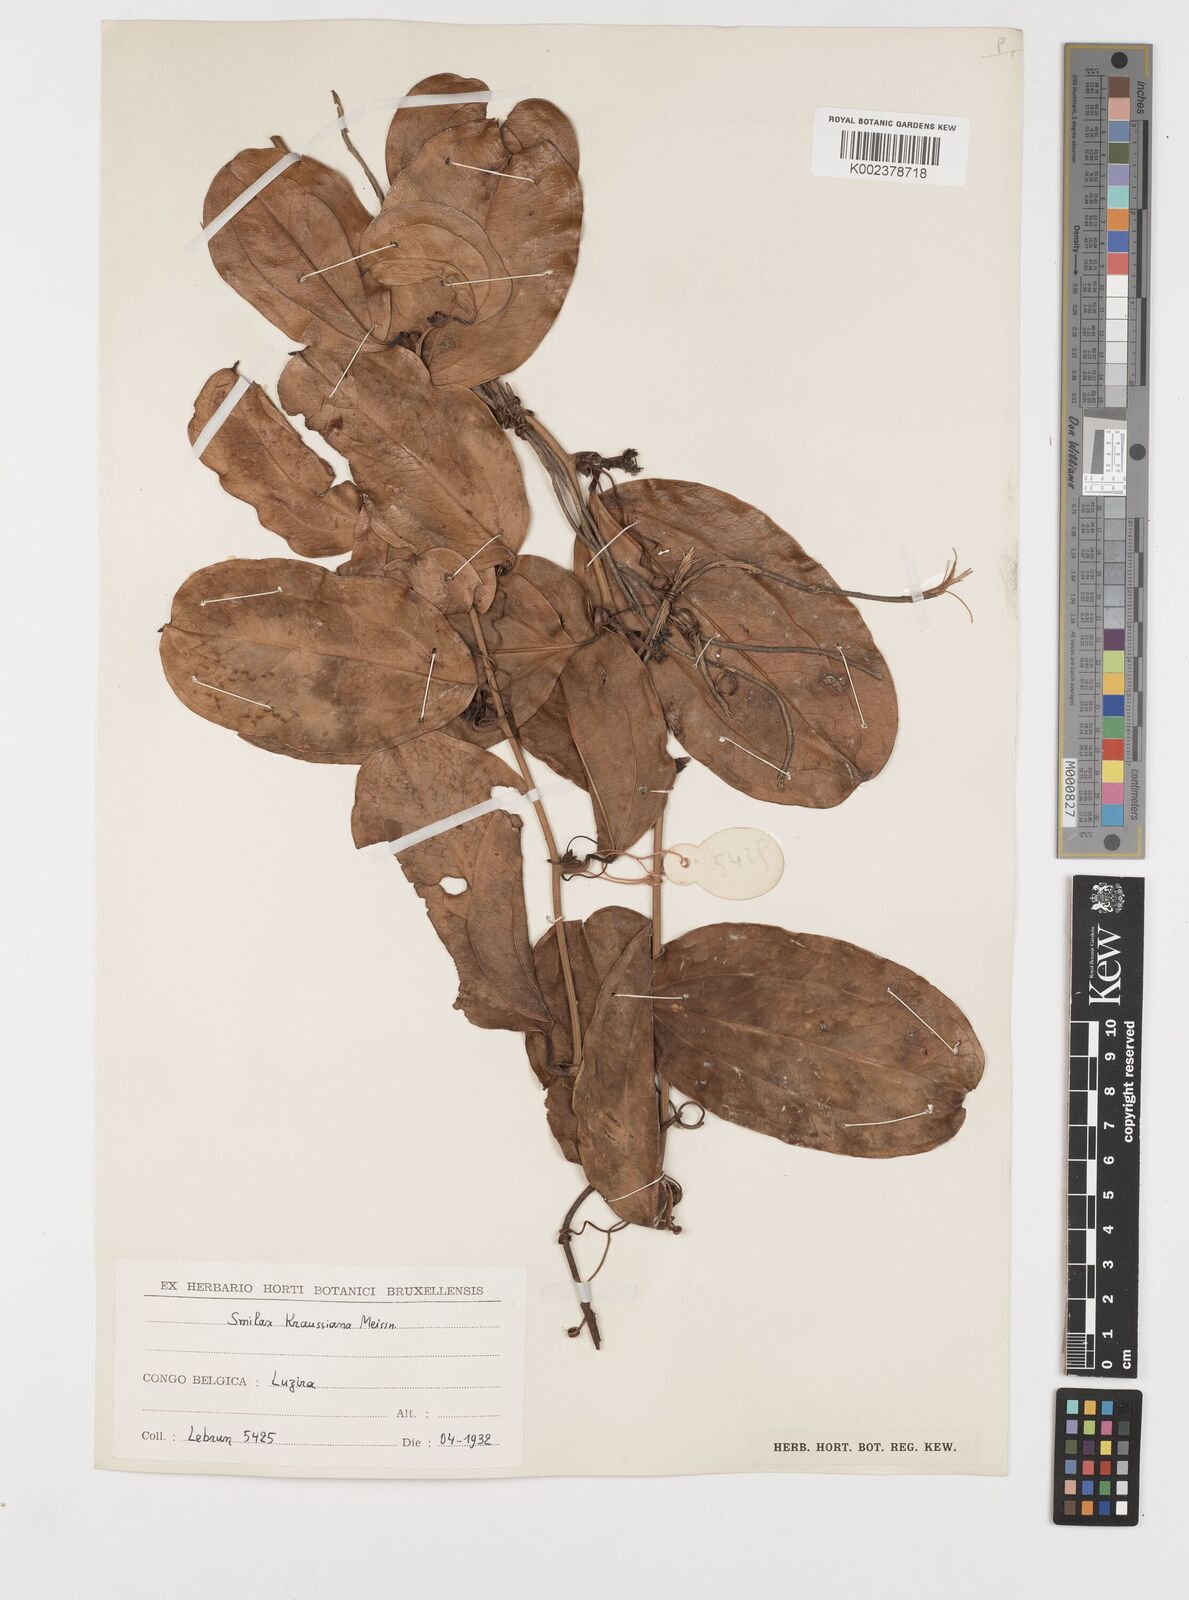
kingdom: Plantae
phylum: Tracheophyta
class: Liliopsida
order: Liliales
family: Smilacaceae
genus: Smilax
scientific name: Smilax anceps
